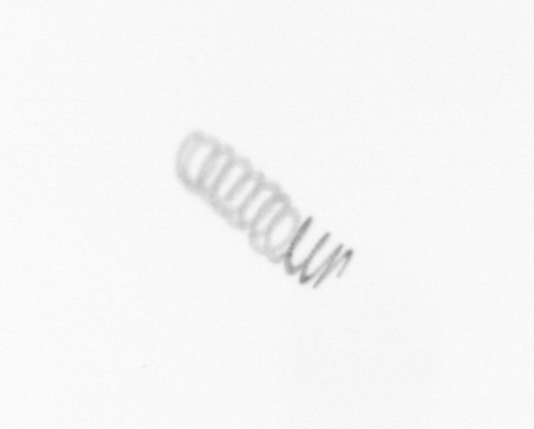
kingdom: Chromista
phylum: Ochrophyta
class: Bacillariophyceae
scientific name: Bacillariophyceae
